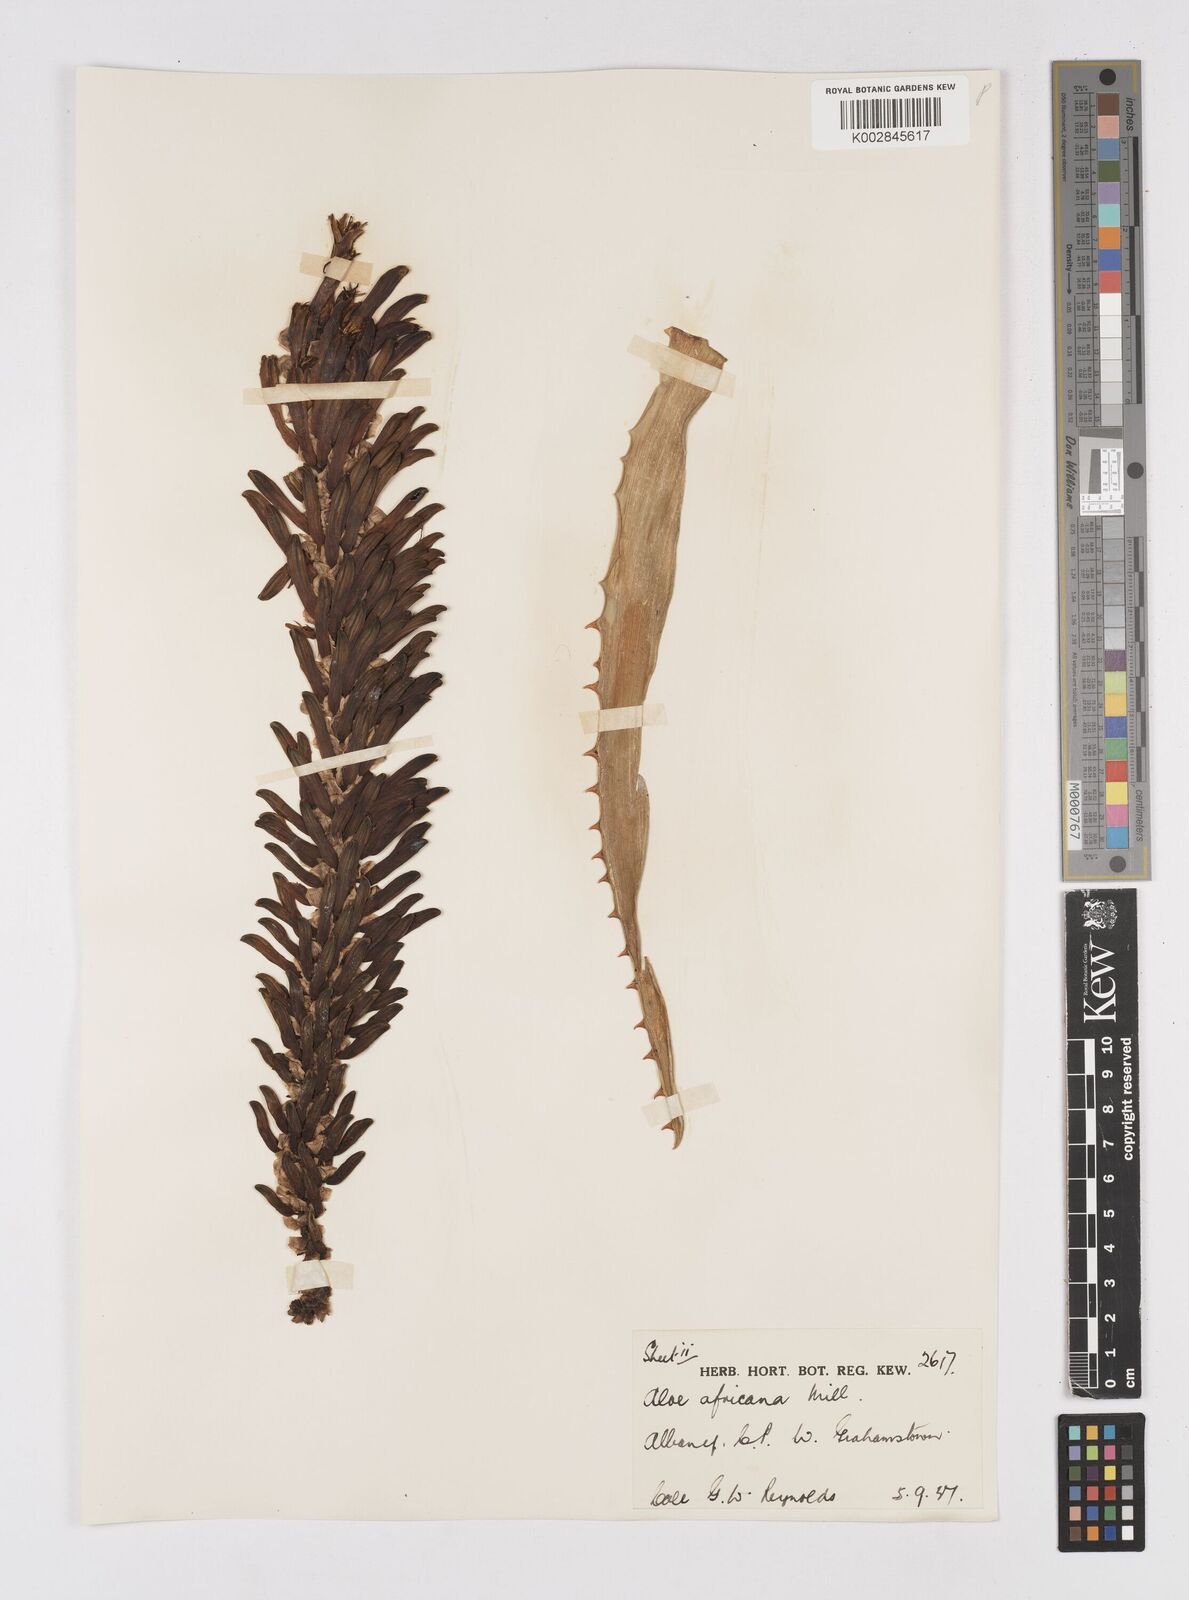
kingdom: Plantae
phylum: Tracheophyta
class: Liliopsida
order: Asparagales
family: Asphodelaceae
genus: Aloe
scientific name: Aloe africana
